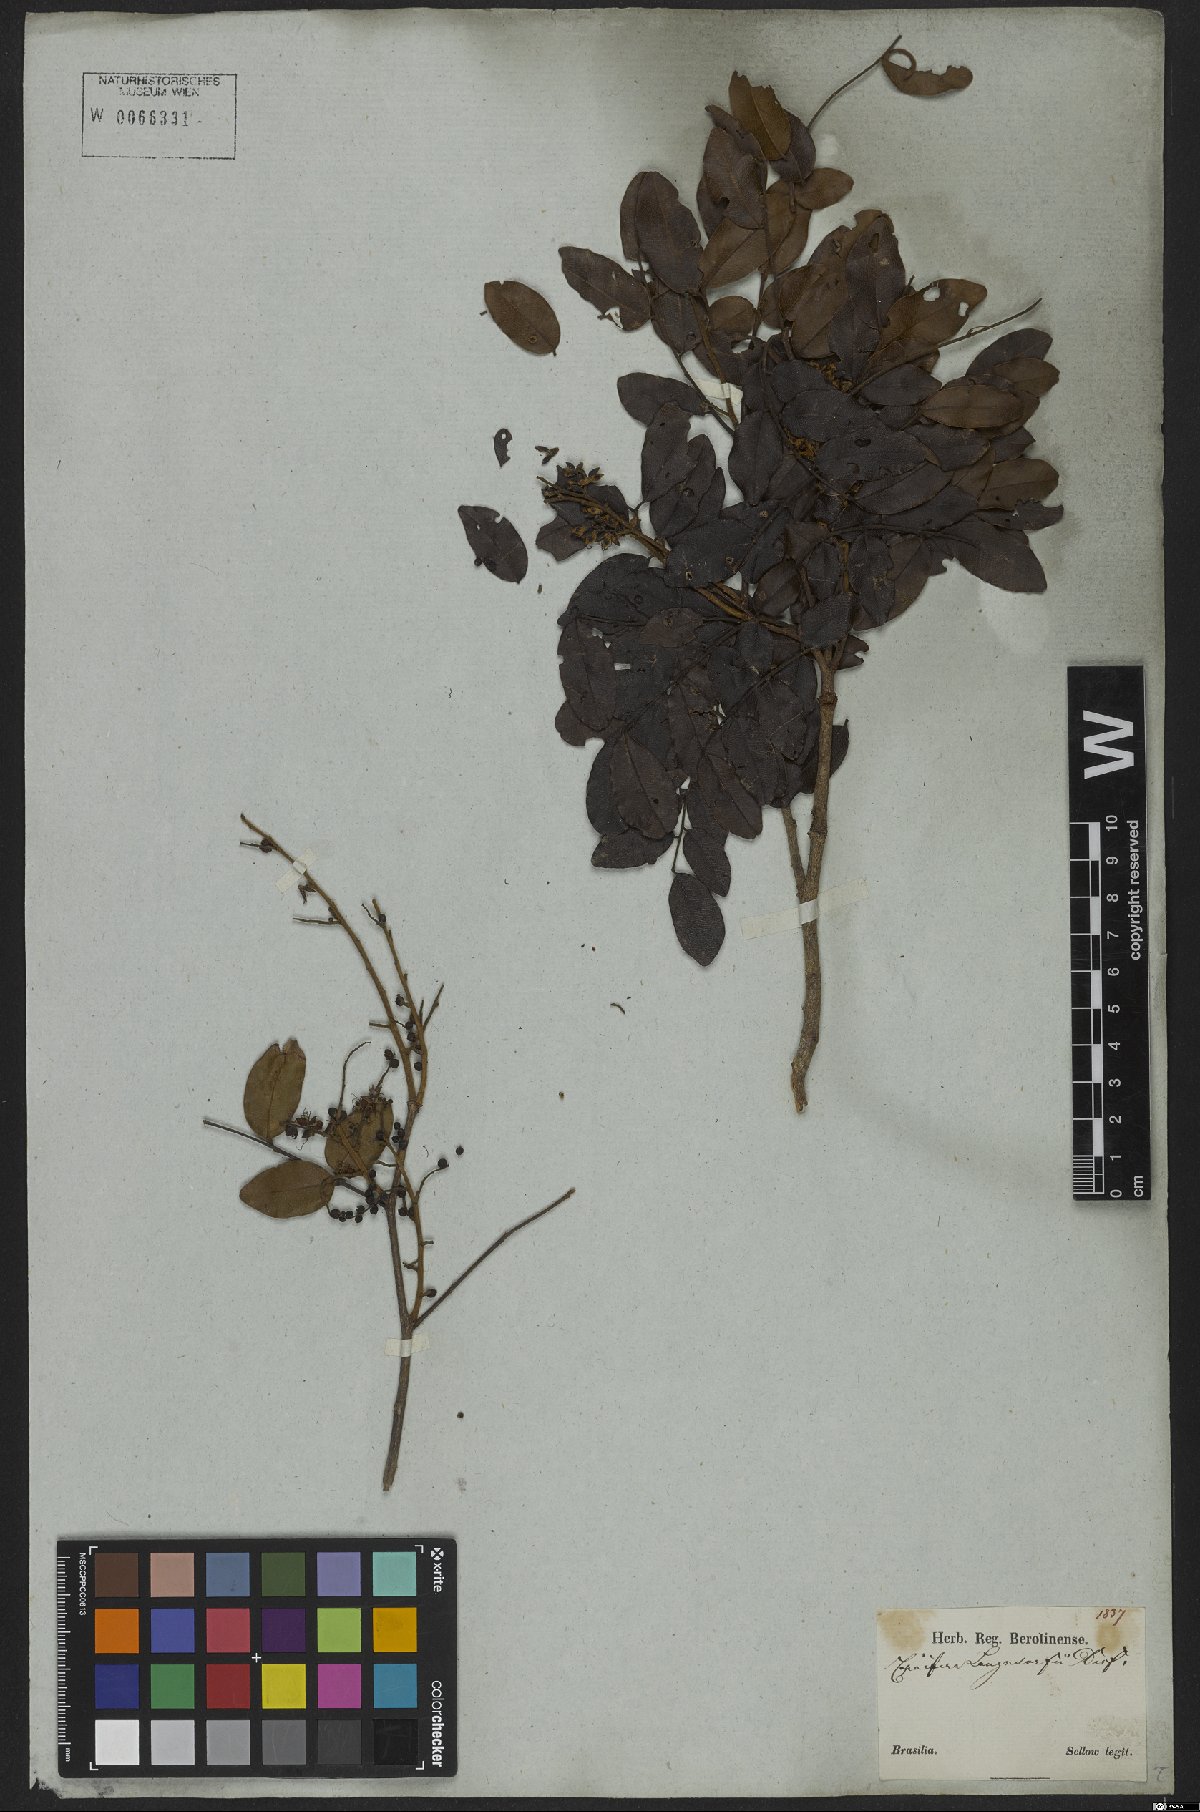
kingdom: Plantae
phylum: Tracheophyta
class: Magnoliopsida
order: Fabales
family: Fabaceae
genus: Copaifera
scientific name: Copaifera langsdorffii
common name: Brazilian diesel tree
